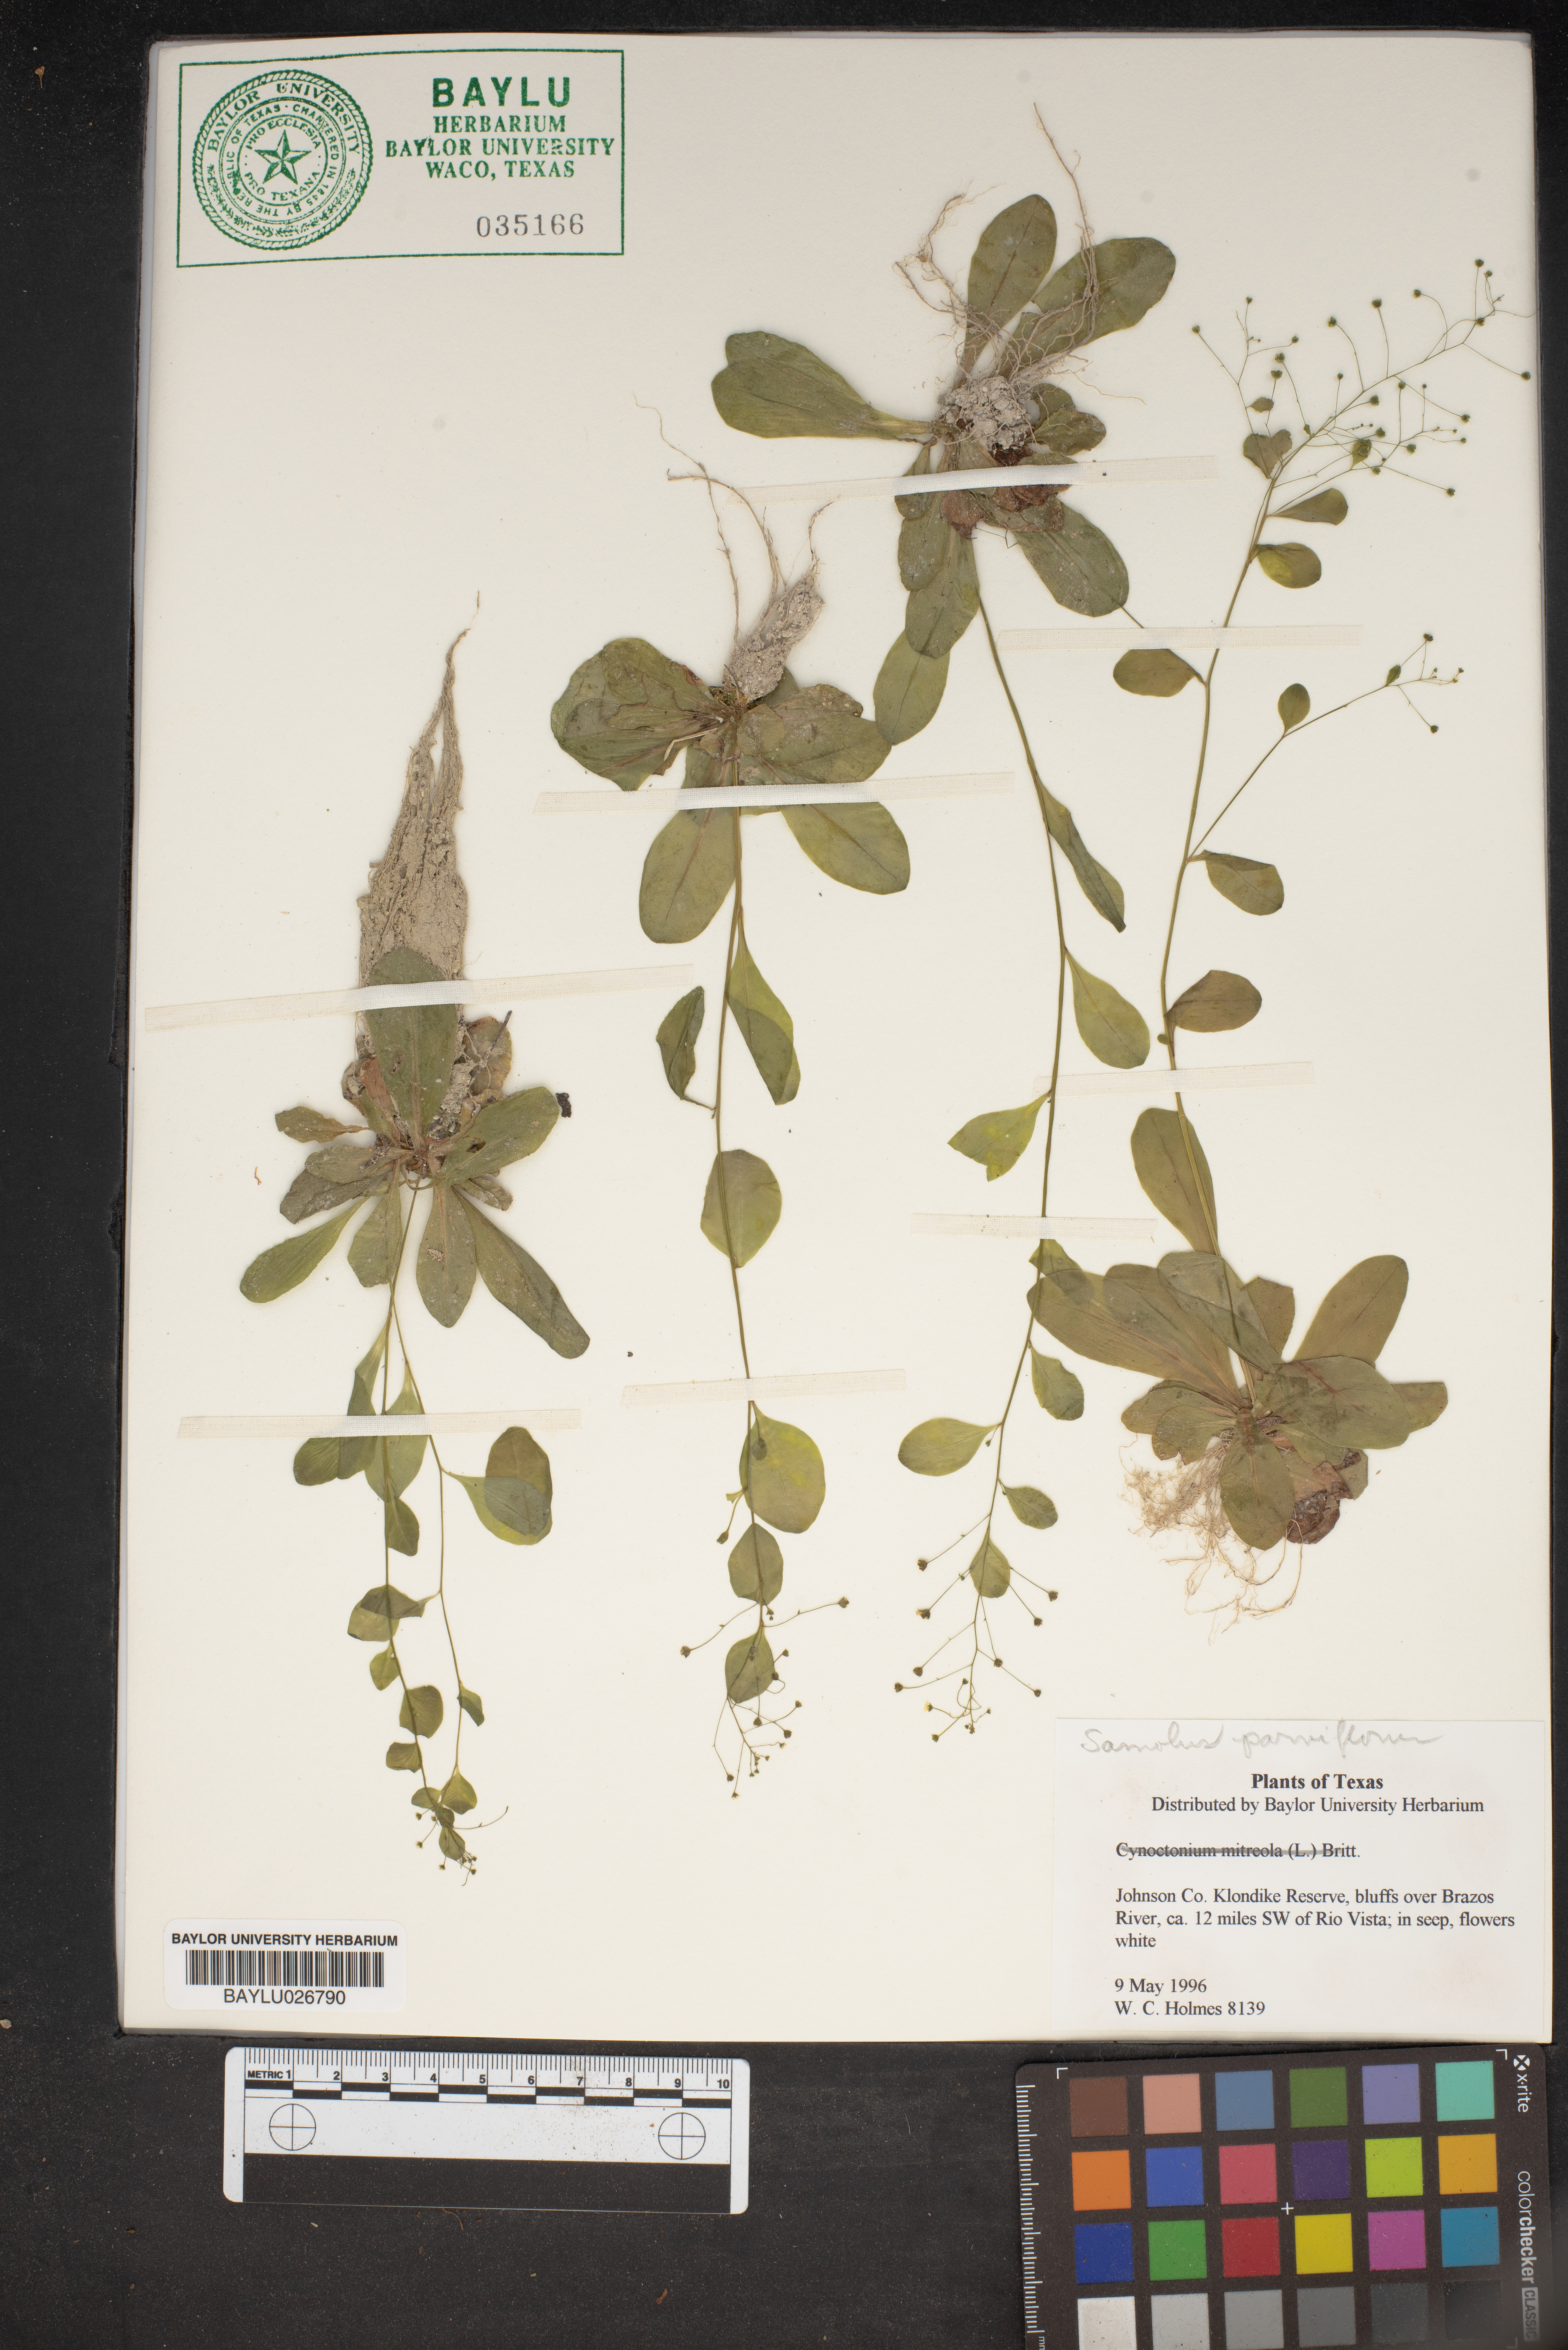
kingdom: Plantae
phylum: Tracheophyta
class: Magnoliopsida
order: Ericales
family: Primulaceae
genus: Samolus
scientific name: Samolus parviflorus
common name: False water pimpernel
